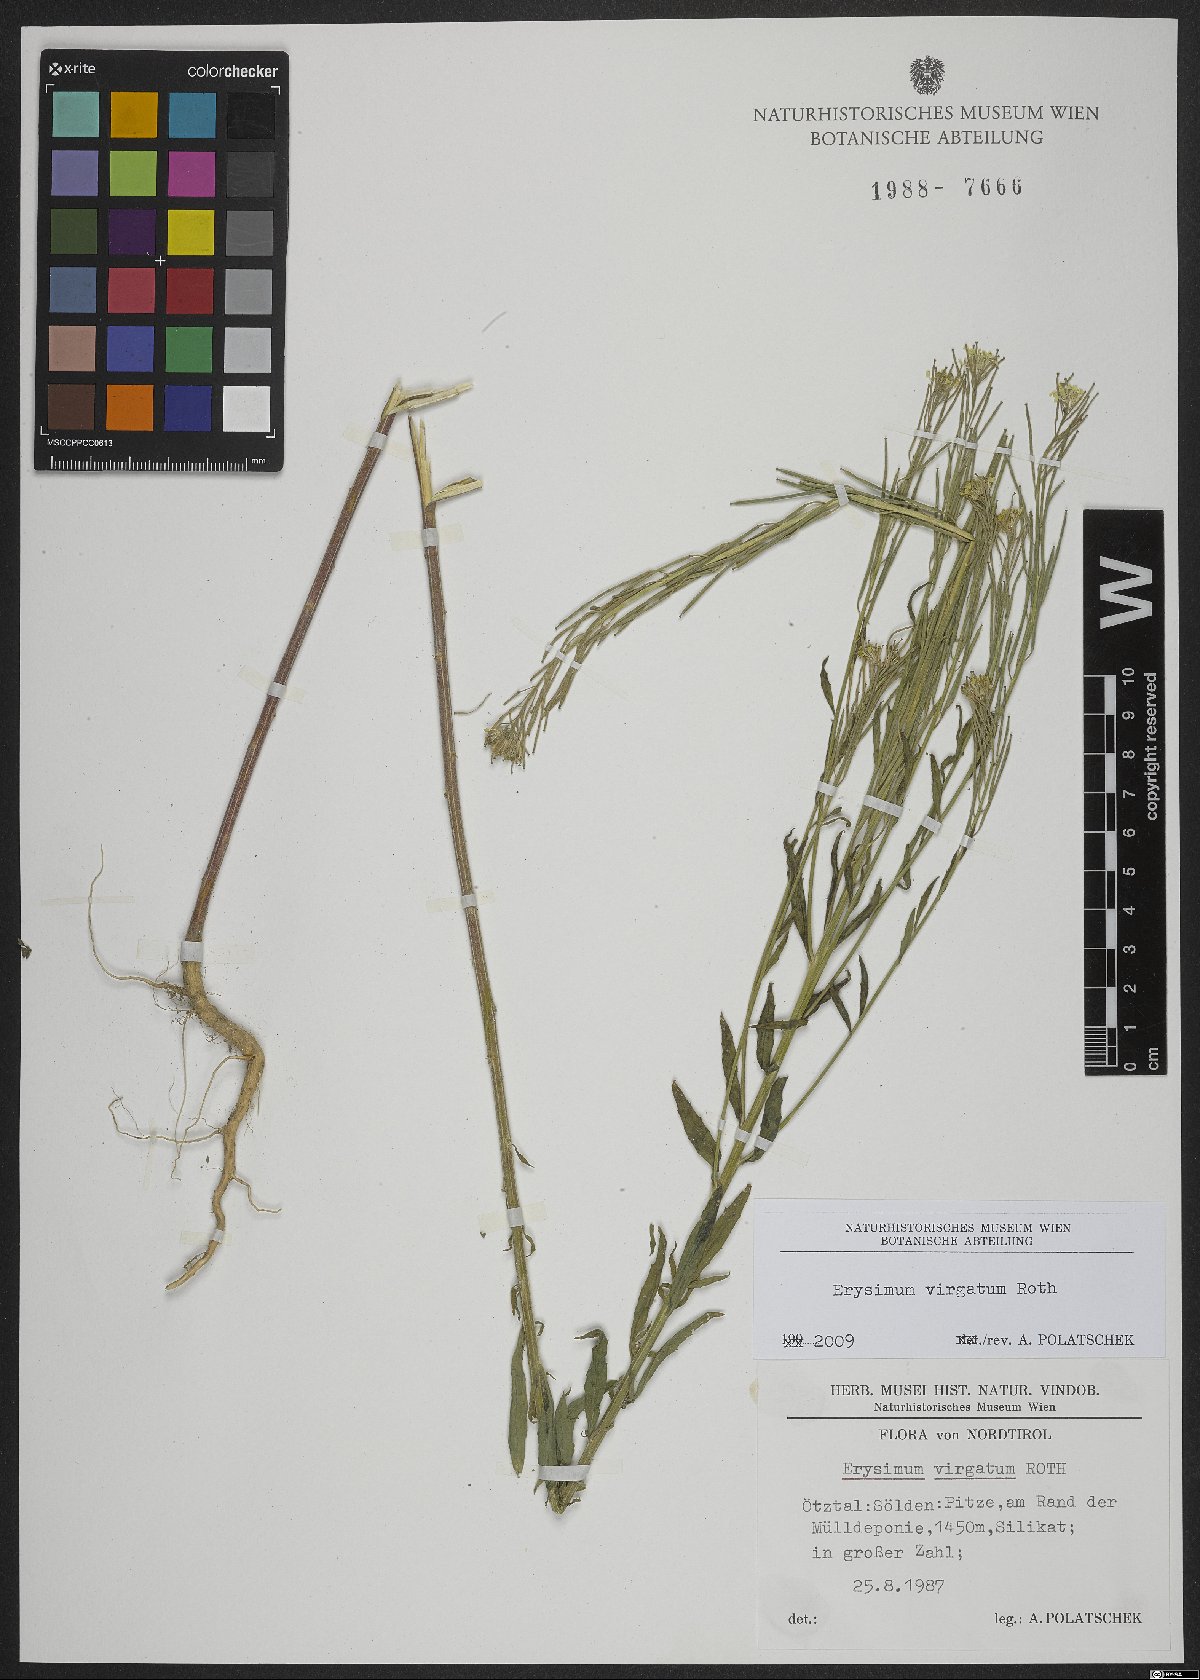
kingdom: Plantae
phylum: Tracheophyta
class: Magnoliopsida
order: Brassicales
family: Brassicaceae
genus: Erysimum
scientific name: Erysimum virgatum
